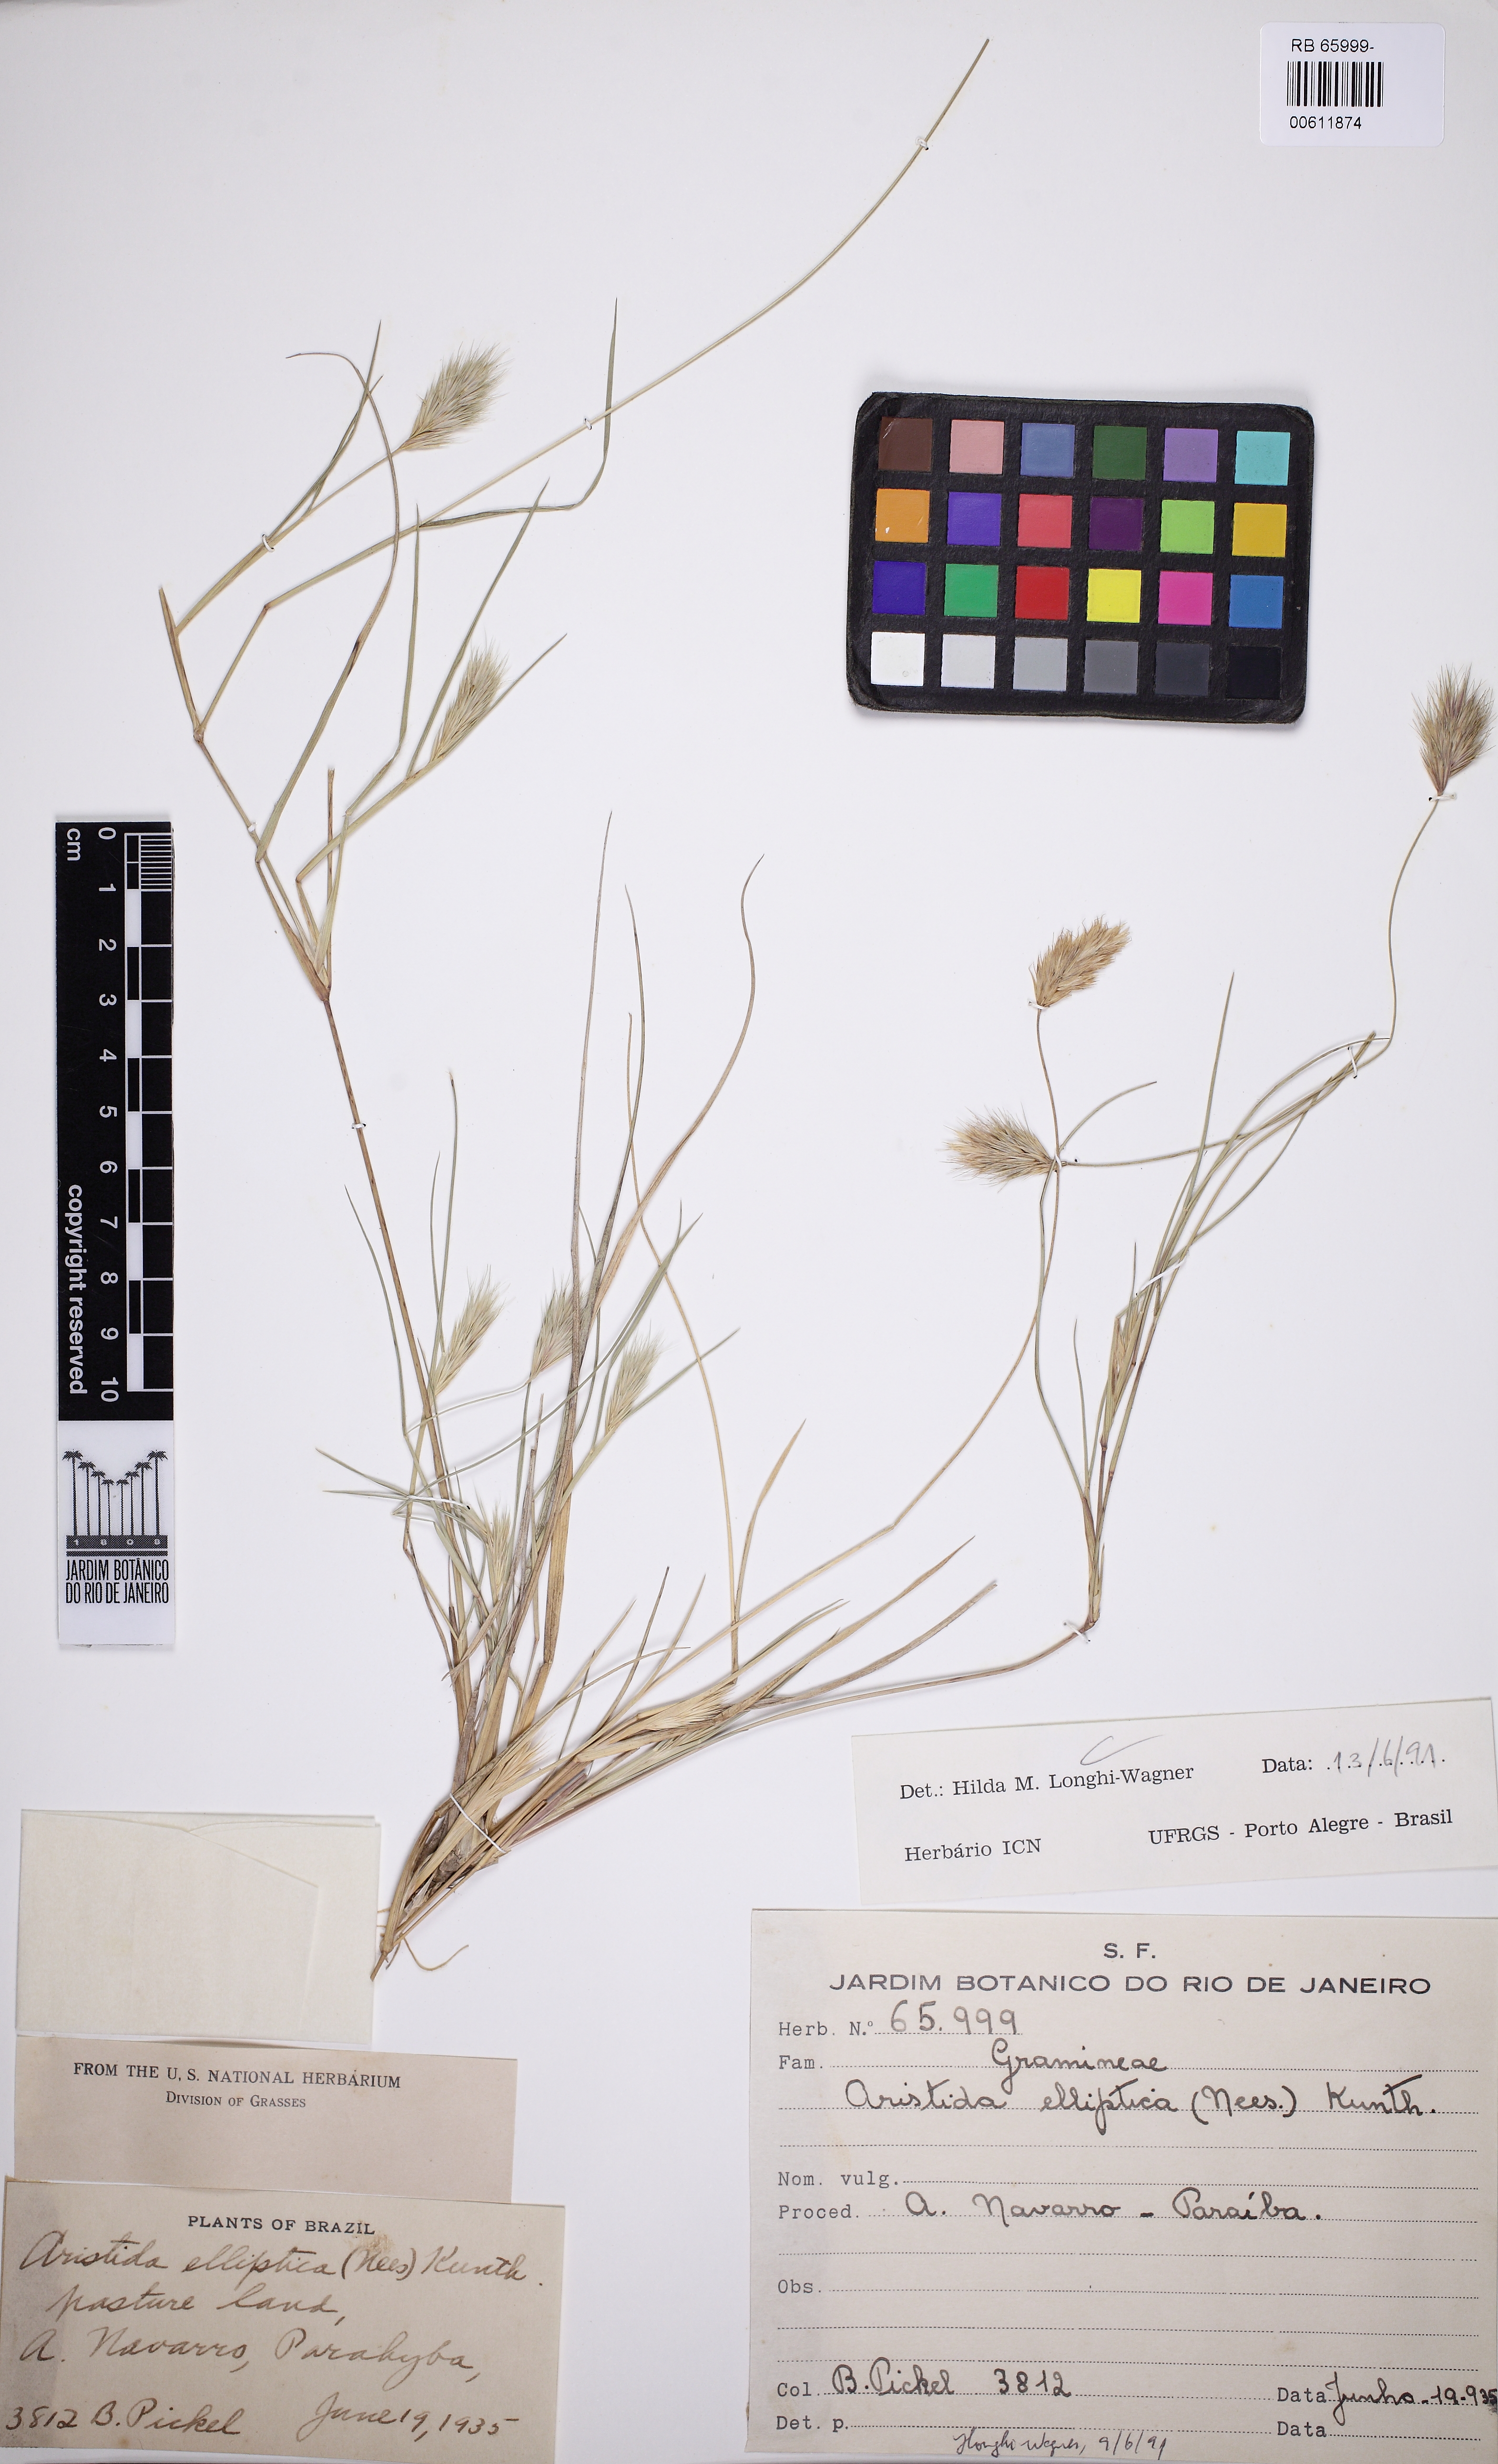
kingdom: Plantae
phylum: Tracheophyta
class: Liliopsida
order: Poales
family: Poaceae
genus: Aristida
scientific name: Aristida elliptica
